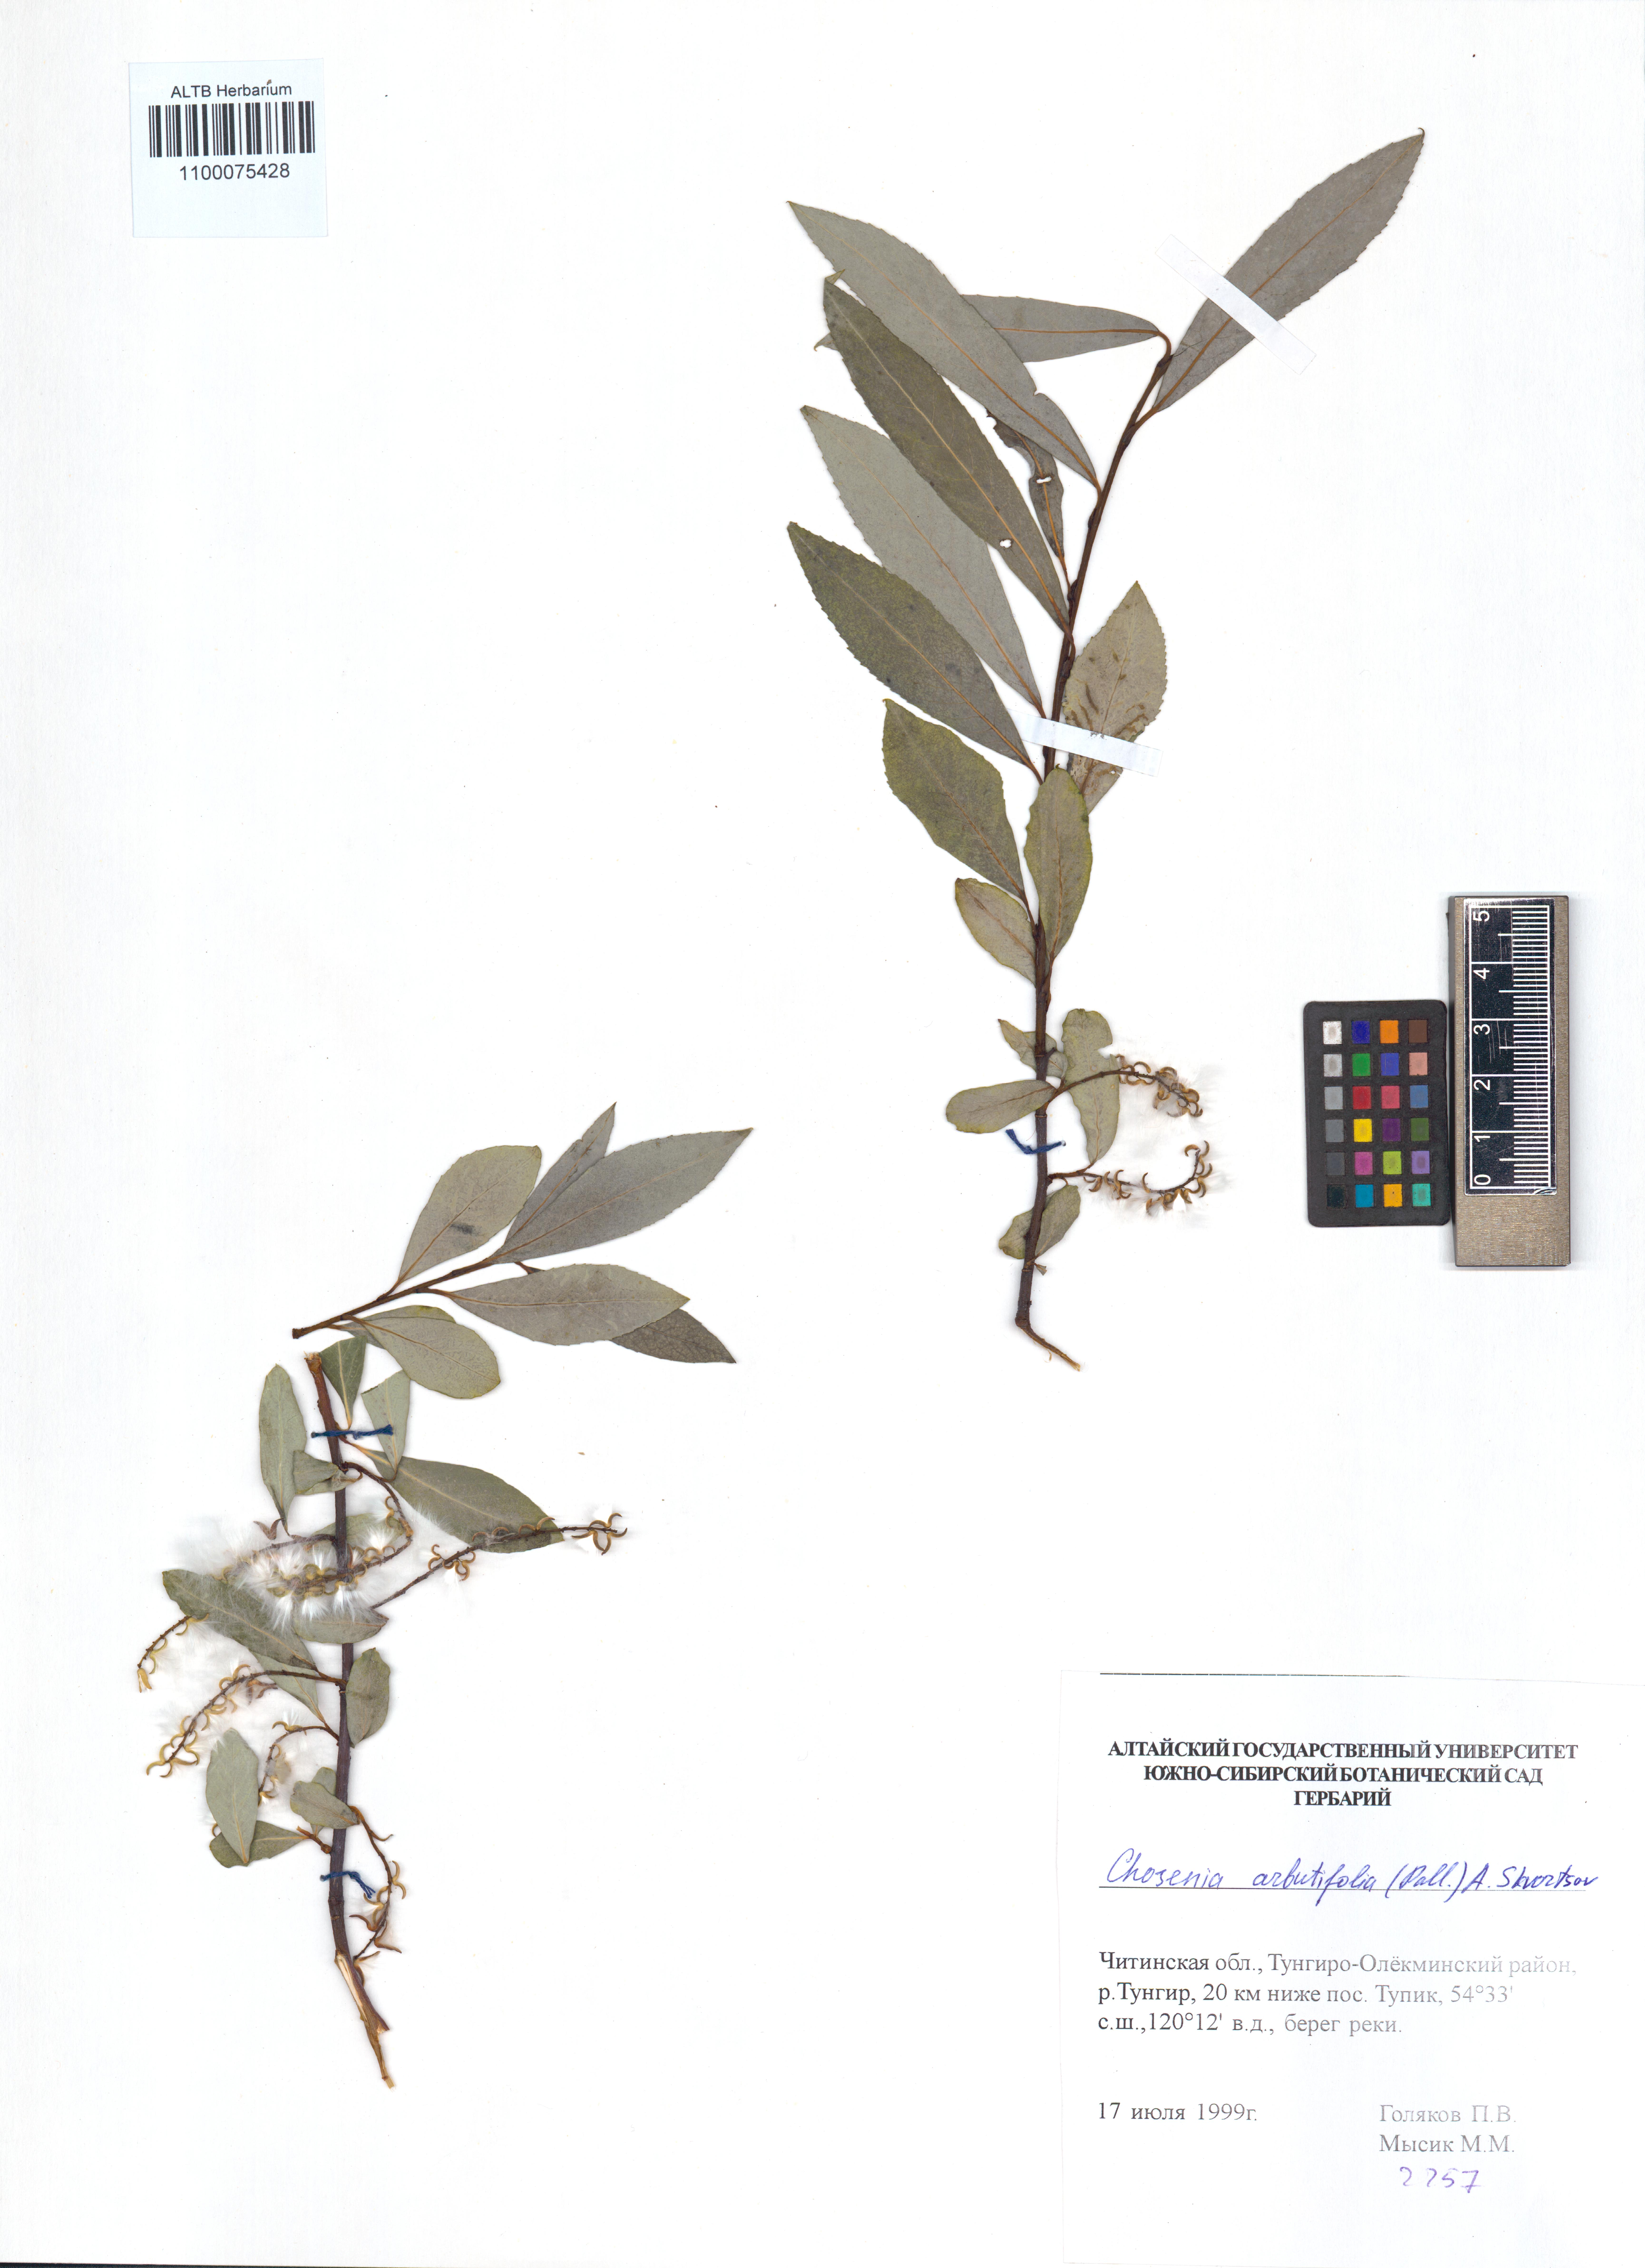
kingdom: Plantae
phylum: Tracheophyta
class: Magnoliopsida
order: Malpighiales
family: Salicaceae
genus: Chosenia
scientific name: Chosenia arbutifolia
